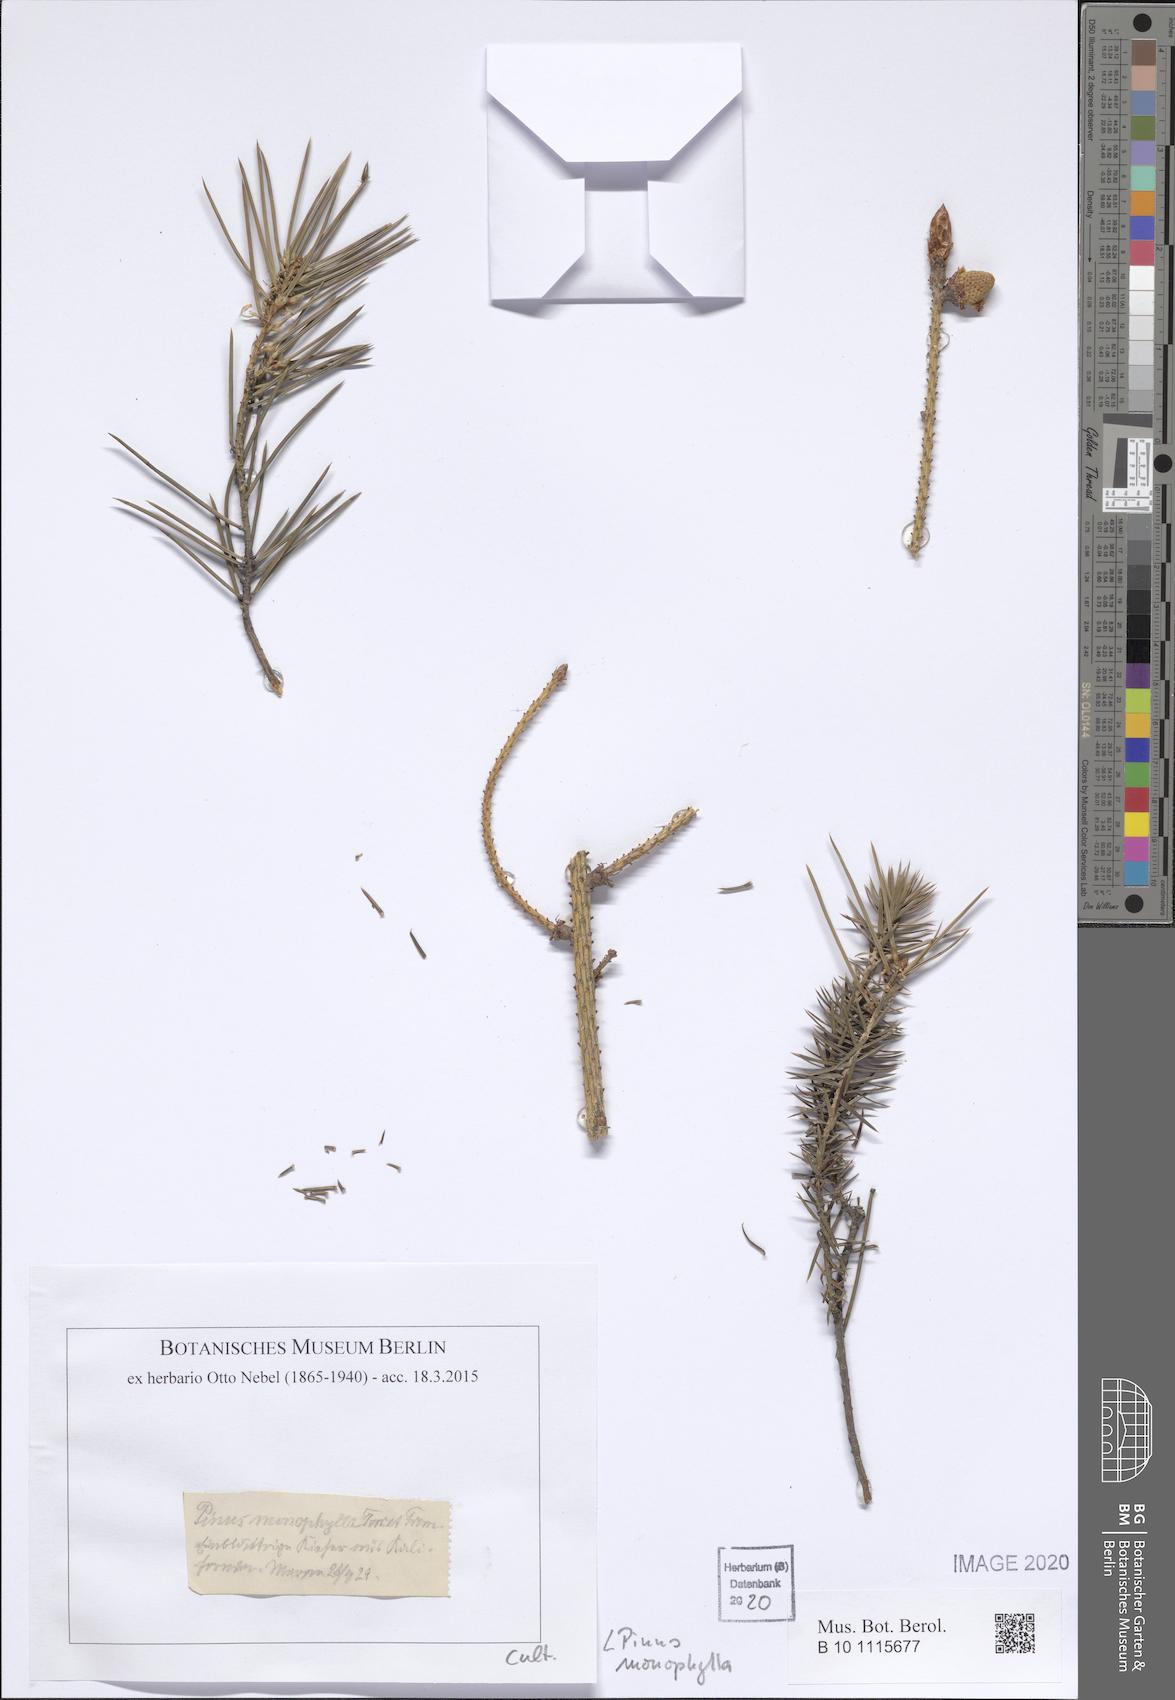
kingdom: Plantae
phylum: Tracheophyta
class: Pinopsida
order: Pinales
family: Pinaceae
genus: Pinus
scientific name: Pinus monophylla
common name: One-leaved nut pine
